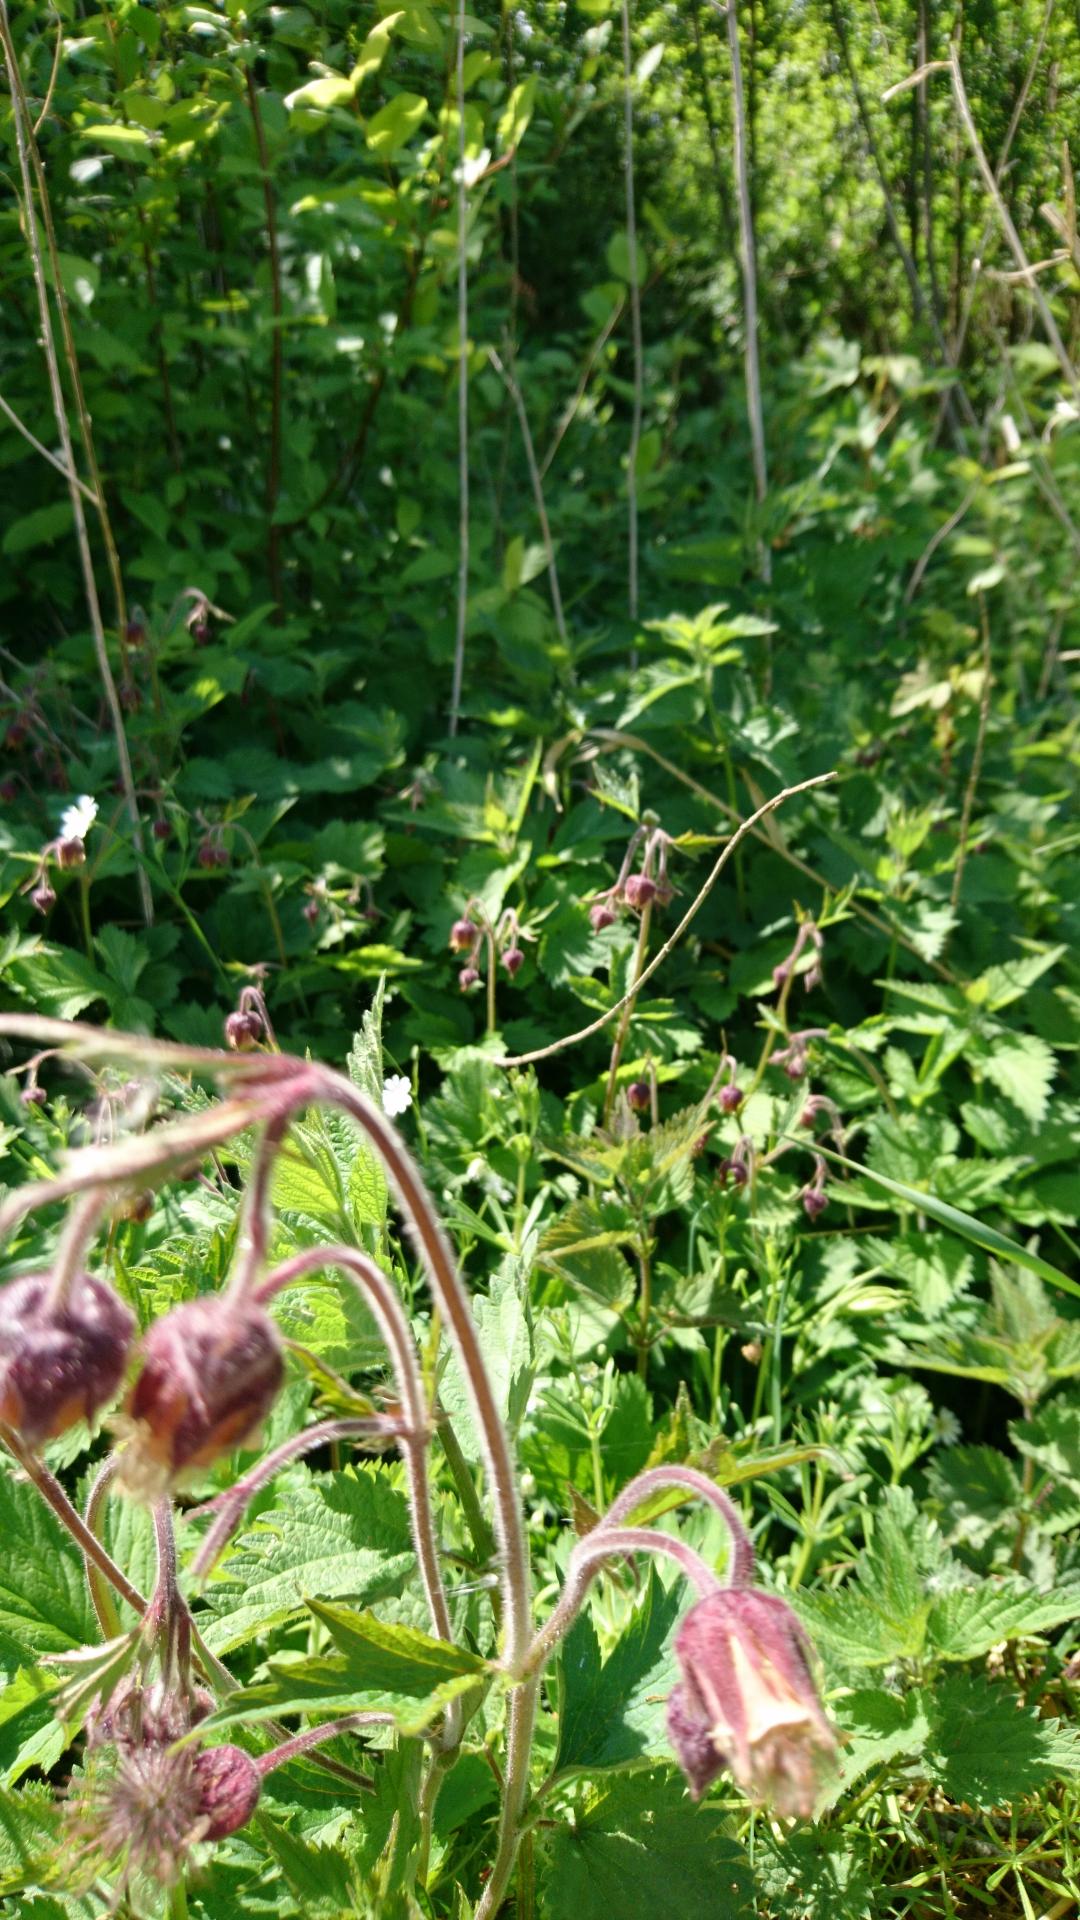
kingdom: Plantae
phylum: Tracheophyta
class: Magnoliopsida
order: Rosales
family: Rosaceae
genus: Geum
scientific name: Geum rivale
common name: Eng-nellikerod
